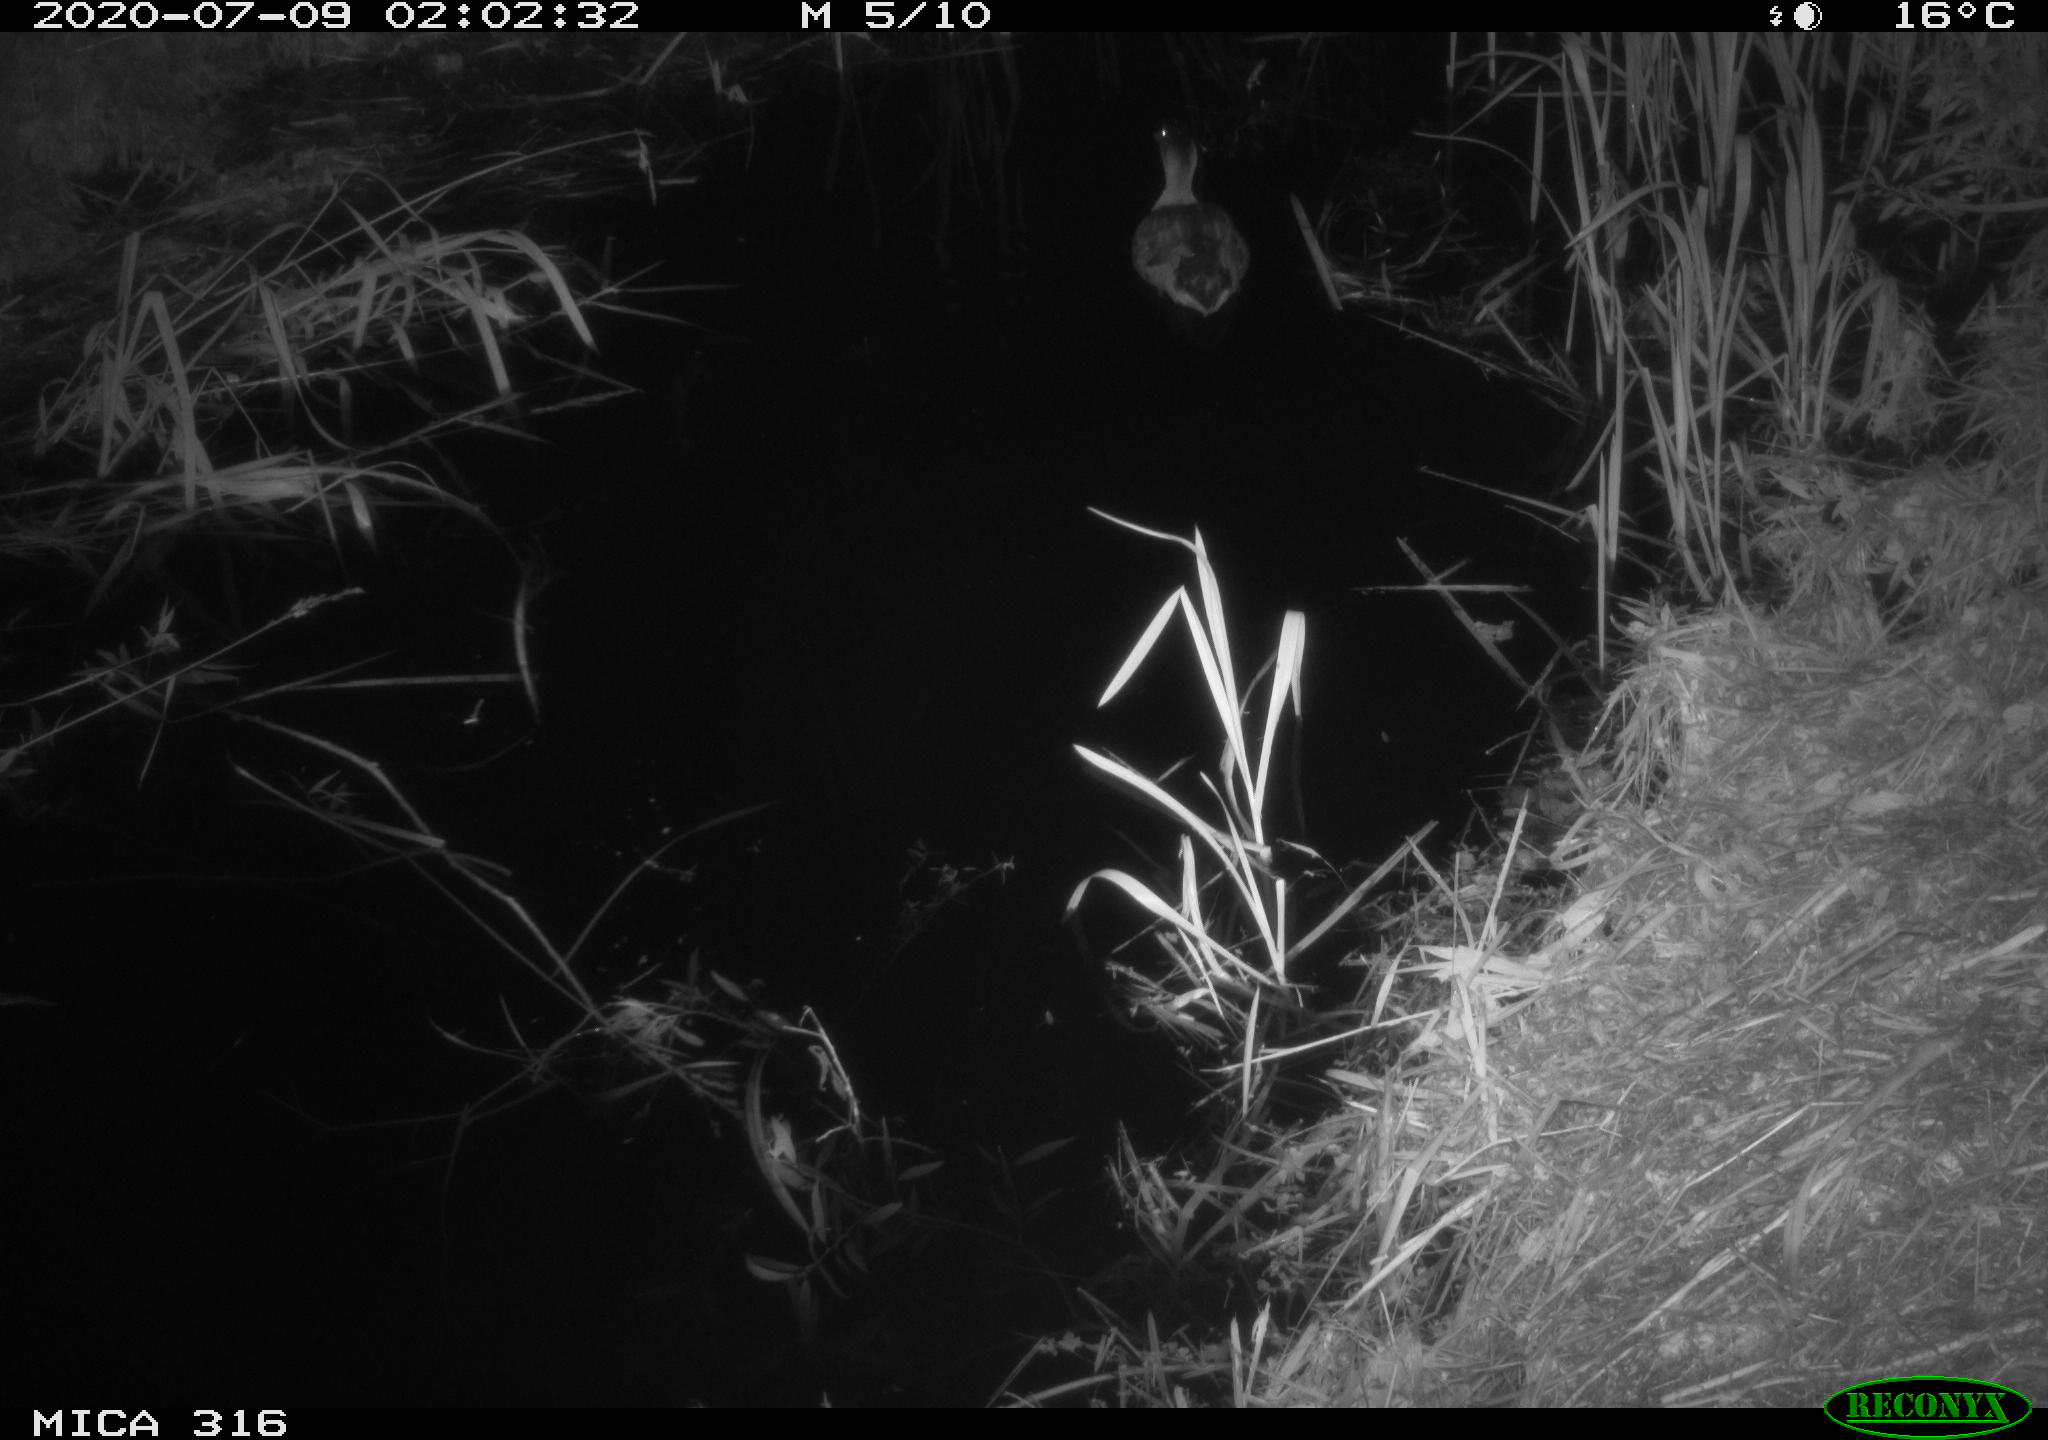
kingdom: Animalia
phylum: Chordata
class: Aves
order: Anseriformes
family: Anatidae
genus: Anas
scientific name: Anas platyrhynchos
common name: Mallard
